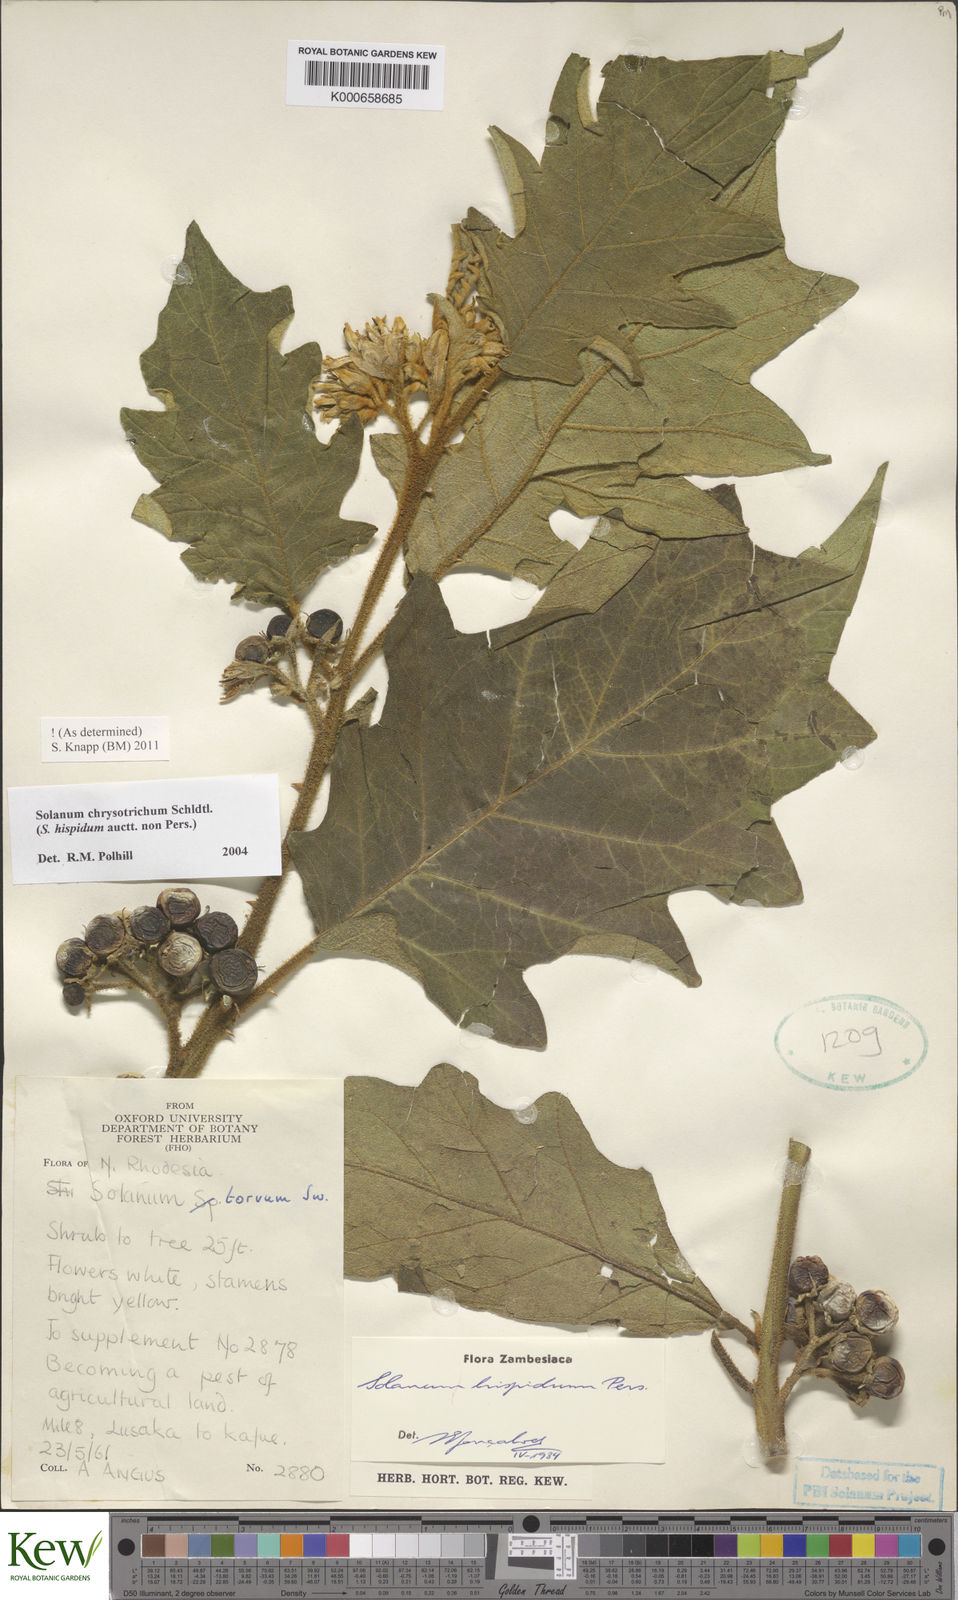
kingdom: Plantae
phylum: Tracheophyta
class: Magnoliopsida
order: Solanales
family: Solanaceae
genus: Solanum
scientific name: Solanum chrysotrichum
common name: Nightshade
